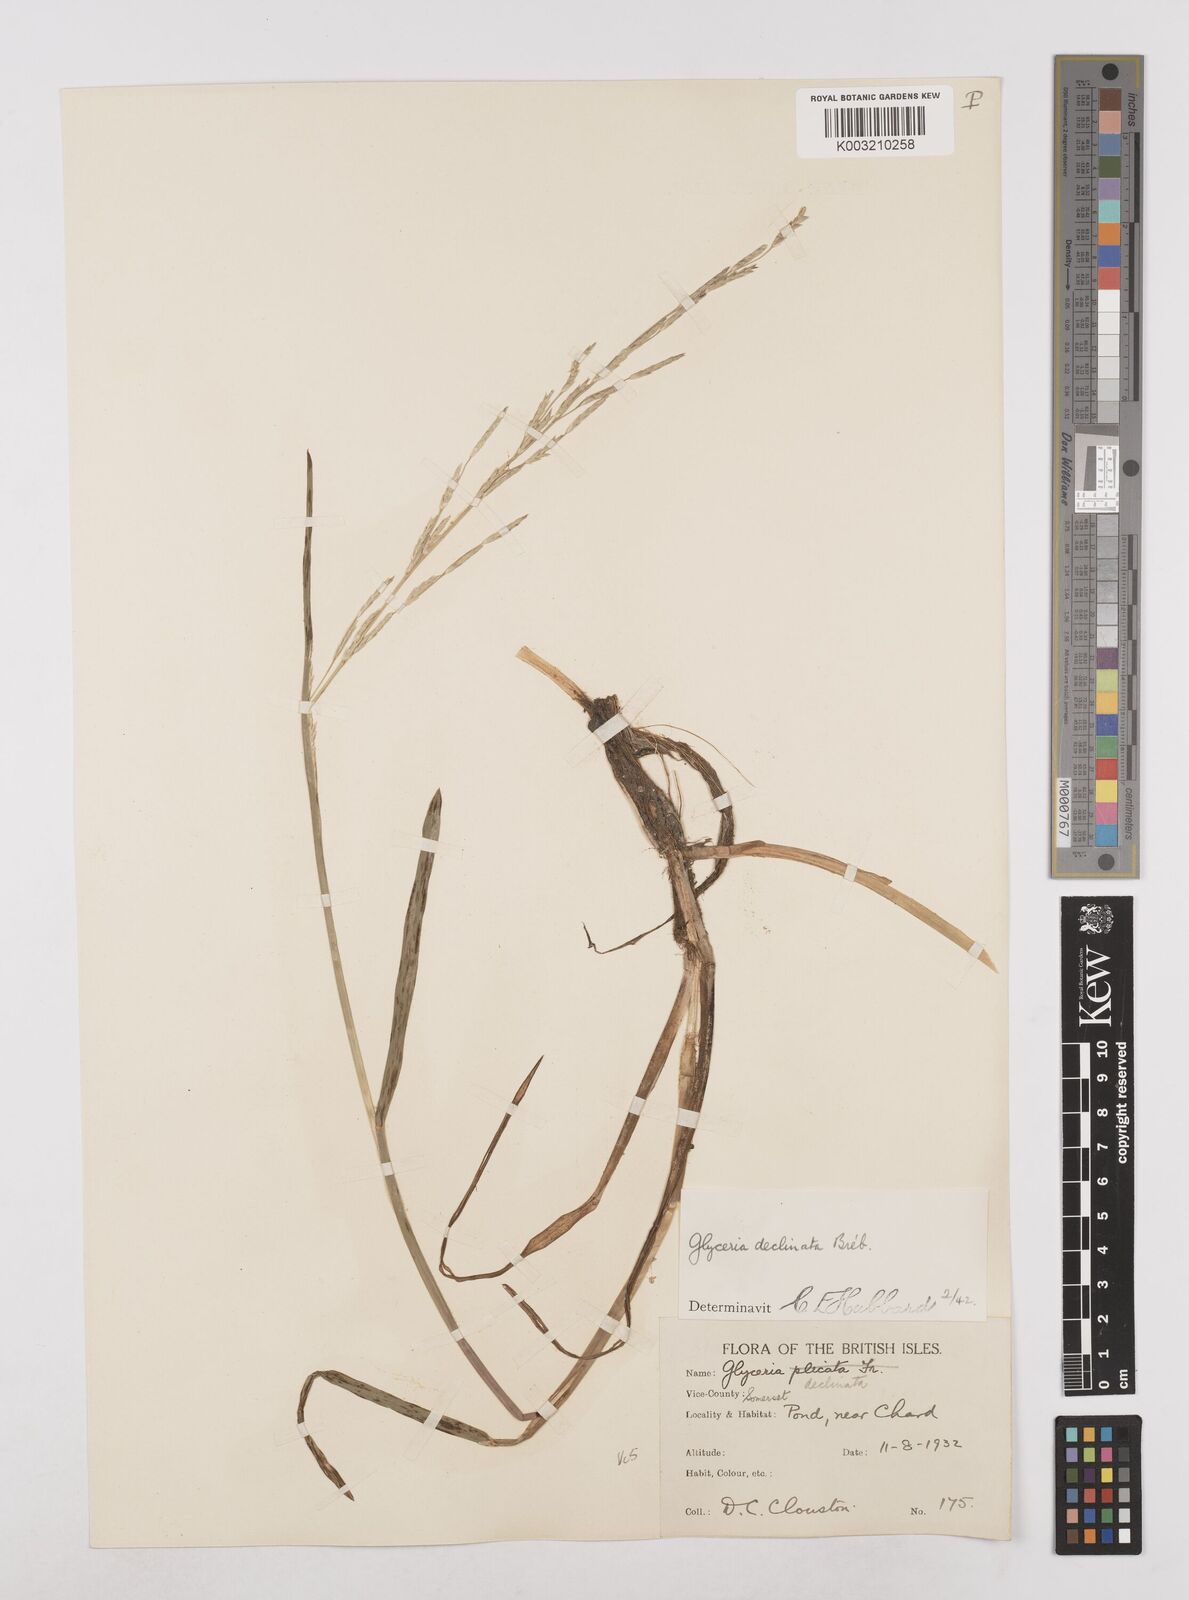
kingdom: Plantae
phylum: Tracheophyta
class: Liliopsida
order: Poales
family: Poaceae
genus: Glyceria
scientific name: Glyceria declinata
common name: Small sweet-grass
